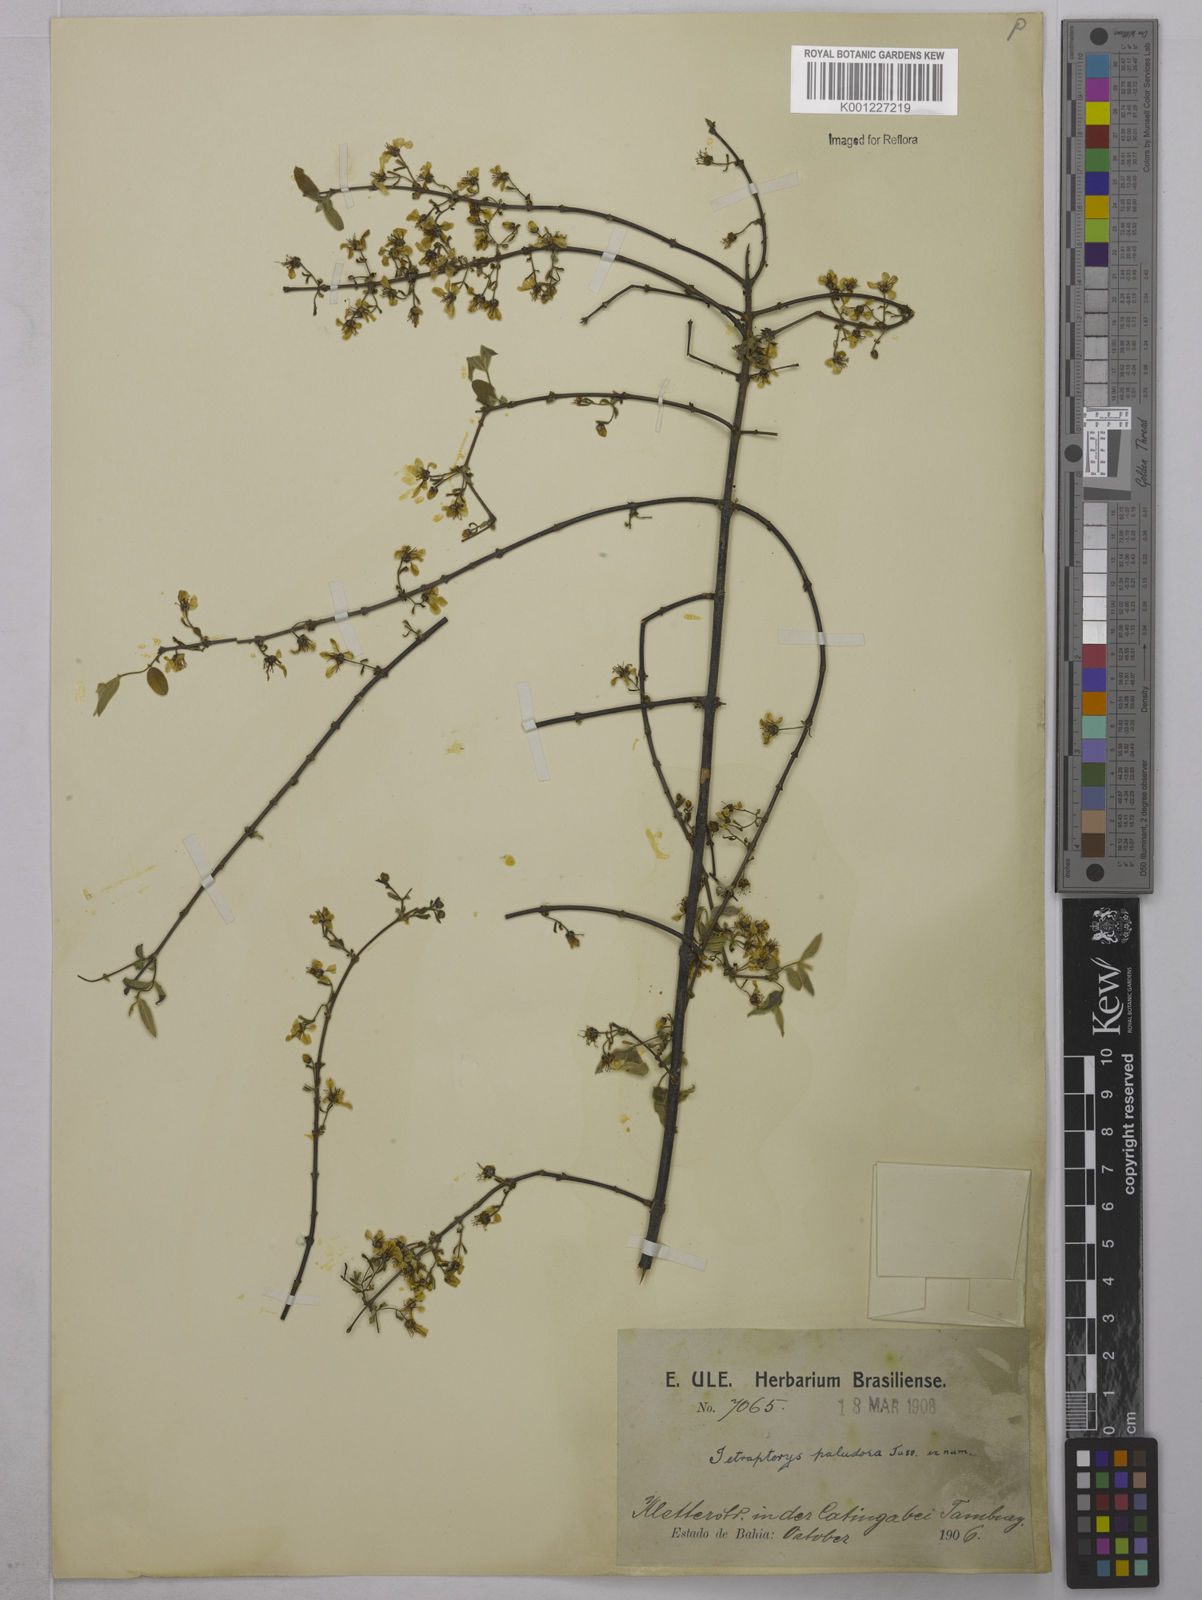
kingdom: Plantae
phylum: Tracheophyta
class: Magnoliopsida
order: Malpighiales
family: Malpighiaceae
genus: Glicophyllum
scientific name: Glicophyllum paludosum
